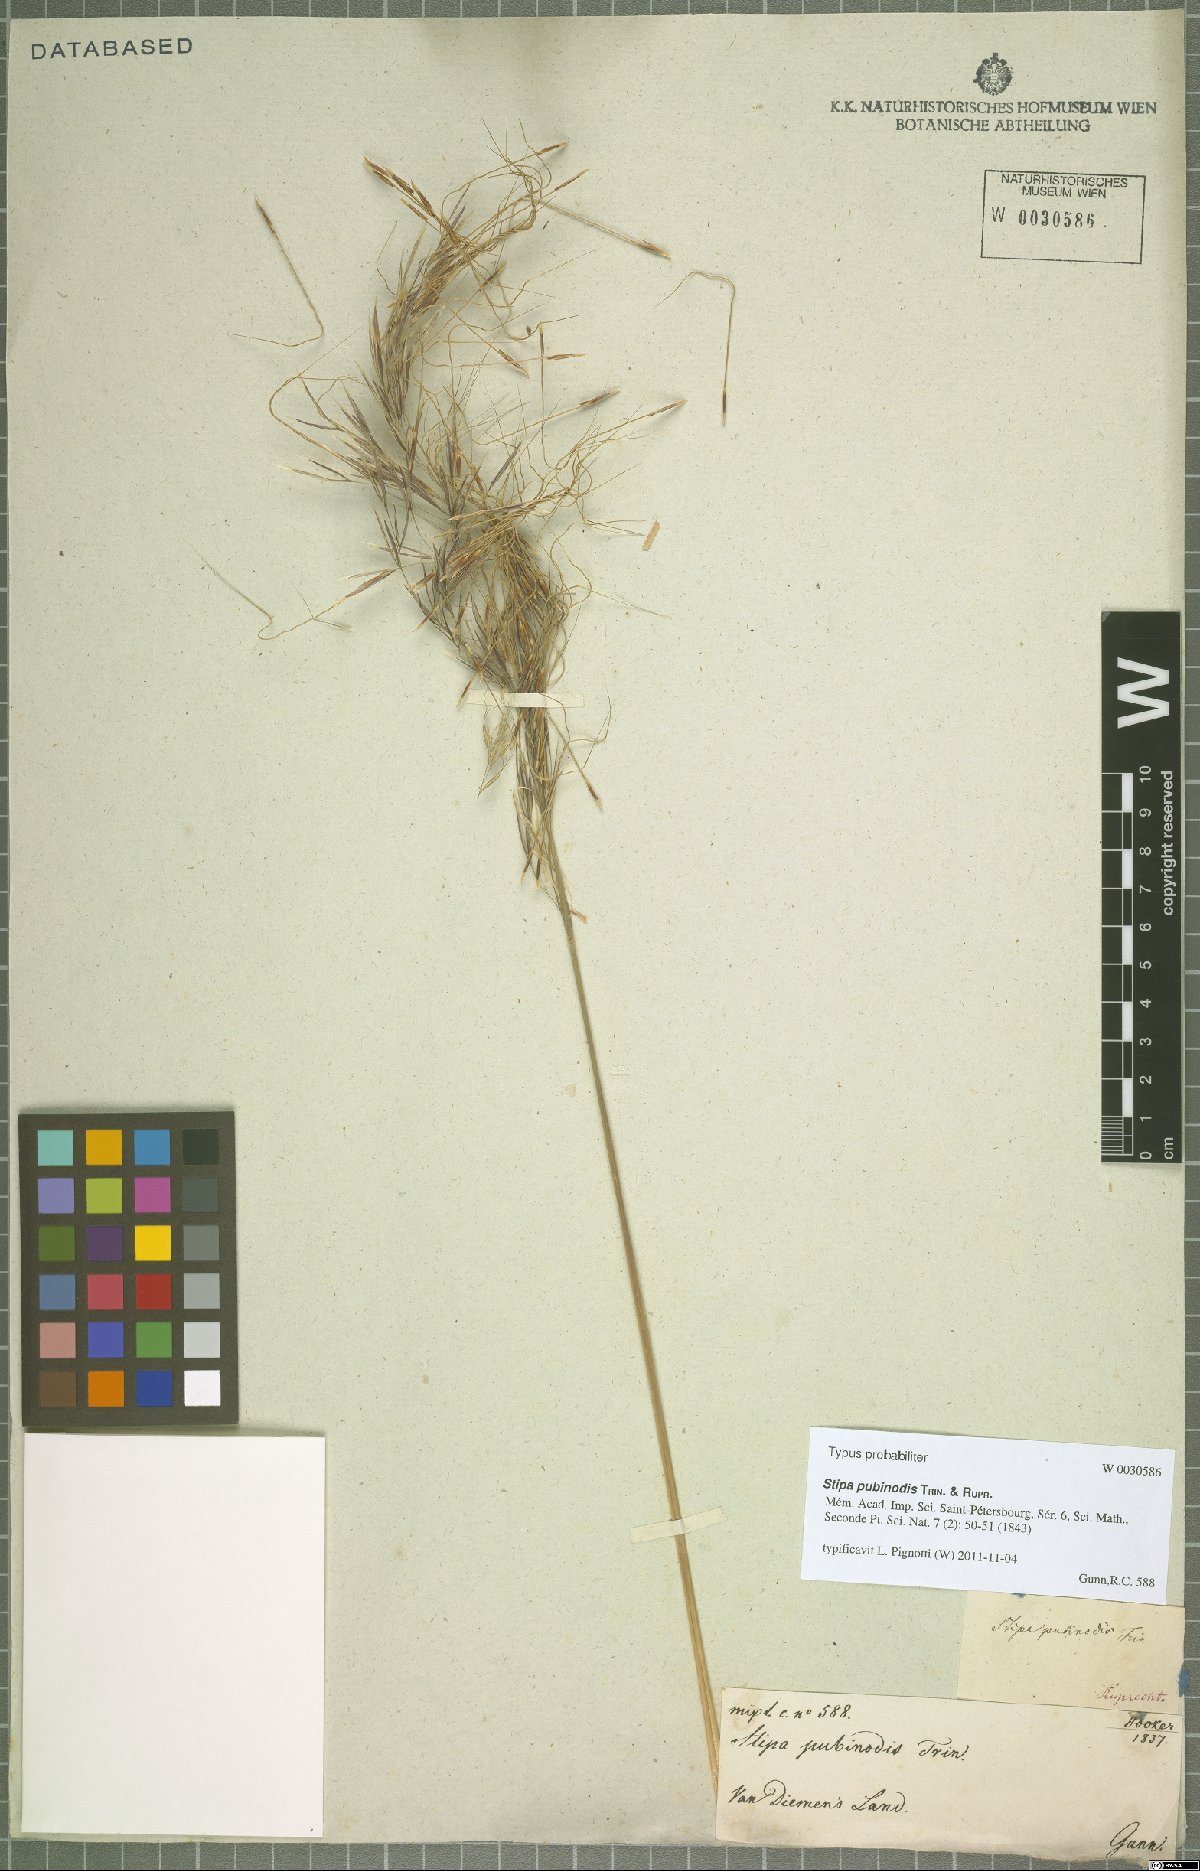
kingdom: Plantae
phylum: Tracheophyta
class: Liliopsida
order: Poales
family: Poaceae
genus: Austrostipa
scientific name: Austrostipa pubinodis
